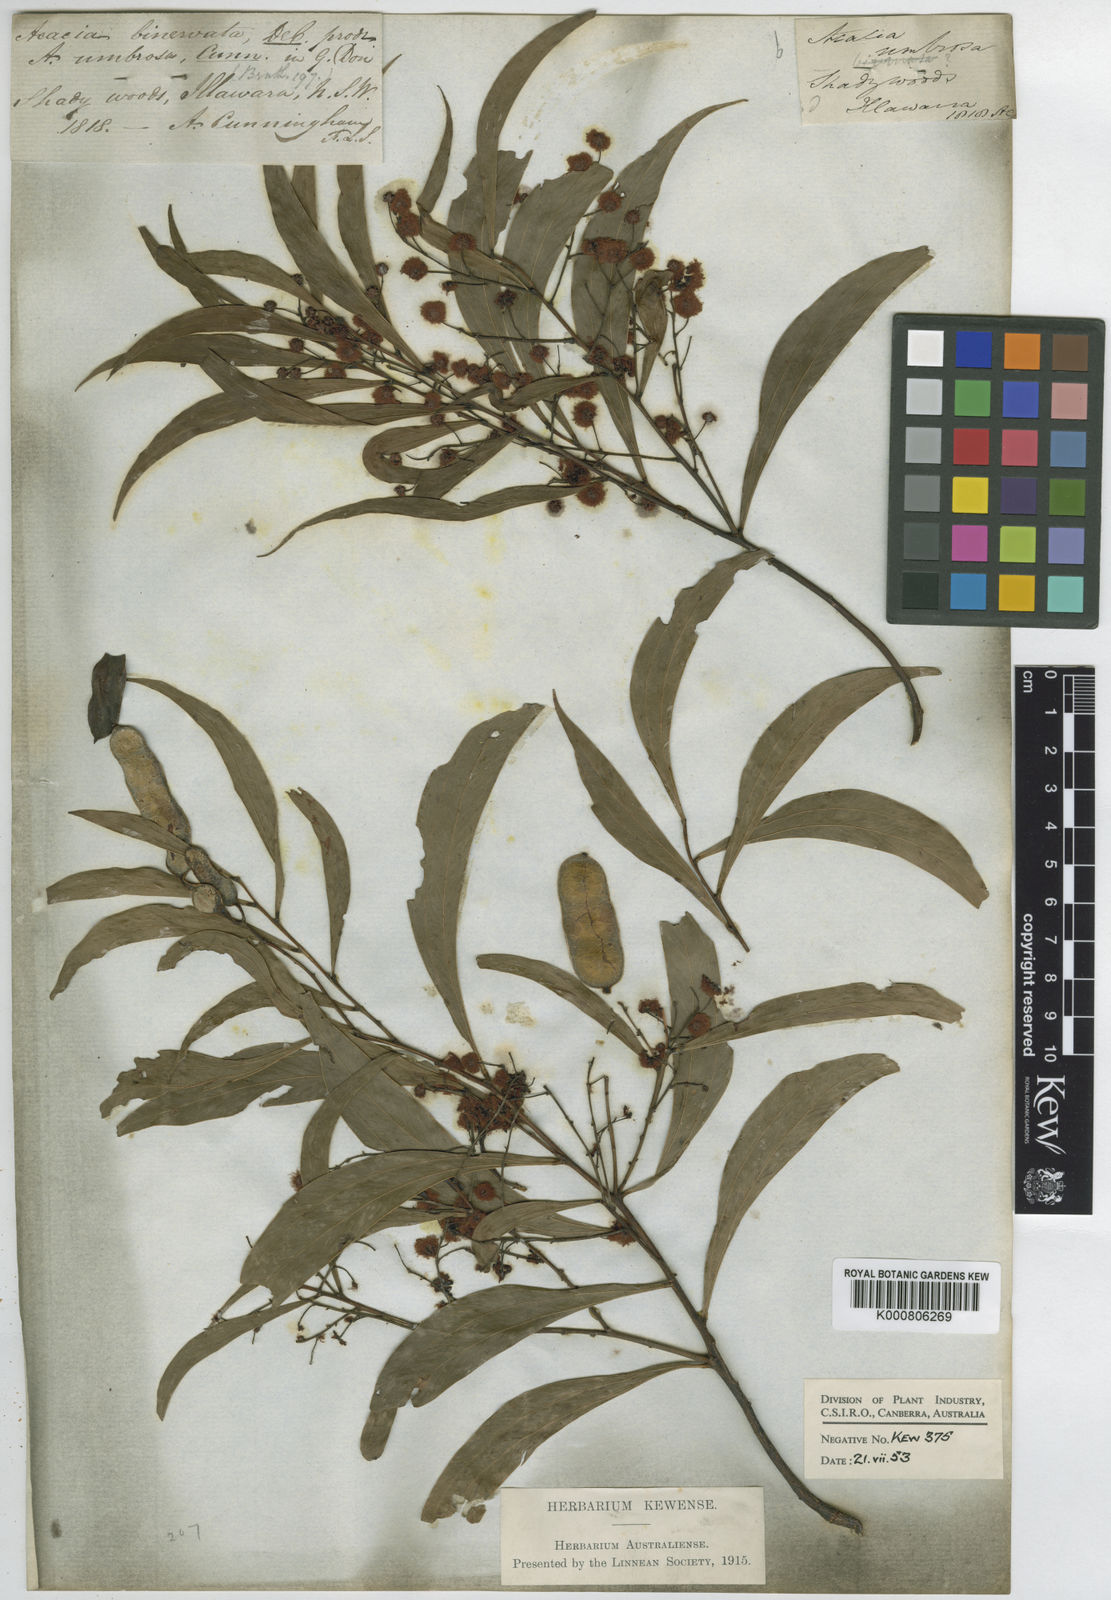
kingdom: Plantae
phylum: Tracheophyta
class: Magnoliopsida
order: Fabales
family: Fabaceae
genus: Acacia
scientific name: Acacia
